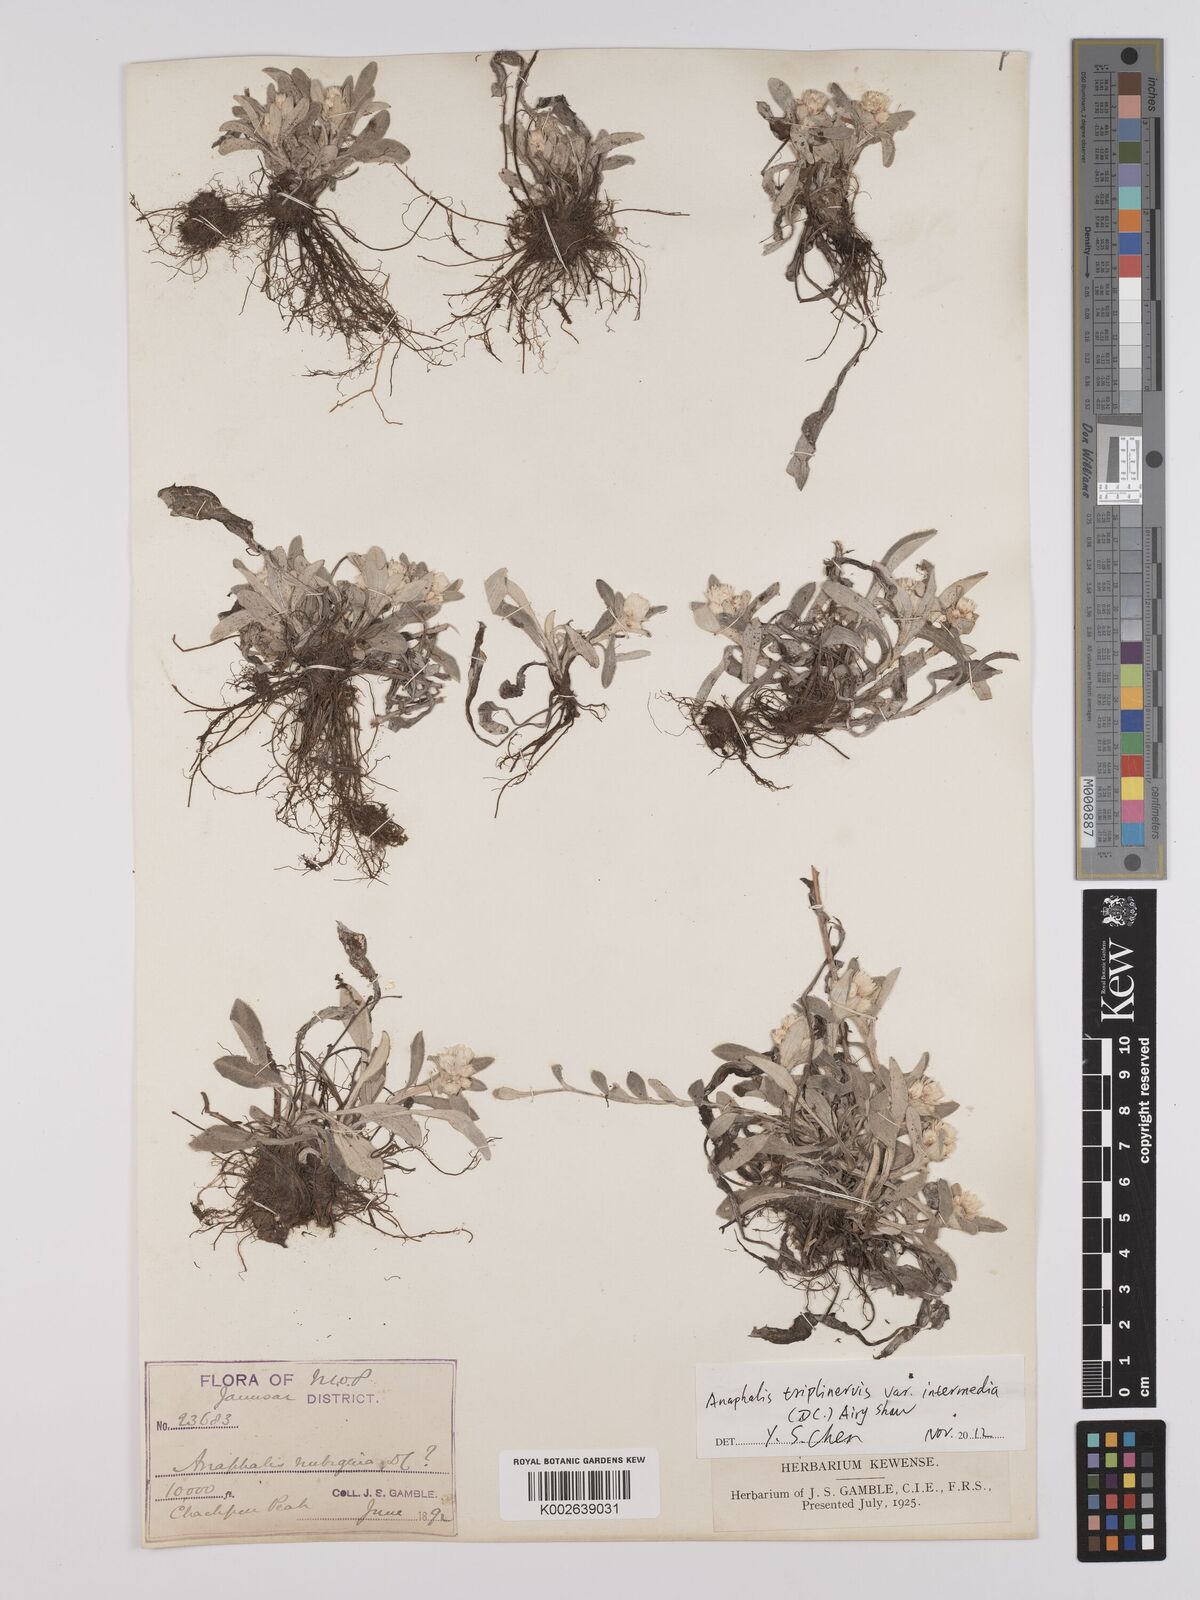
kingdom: Plantae
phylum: Tracheophyta
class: Magnoliopsida
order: Asterales
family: Asteraceae
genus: Anaphalis
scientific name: Anaphalis nepalensis
